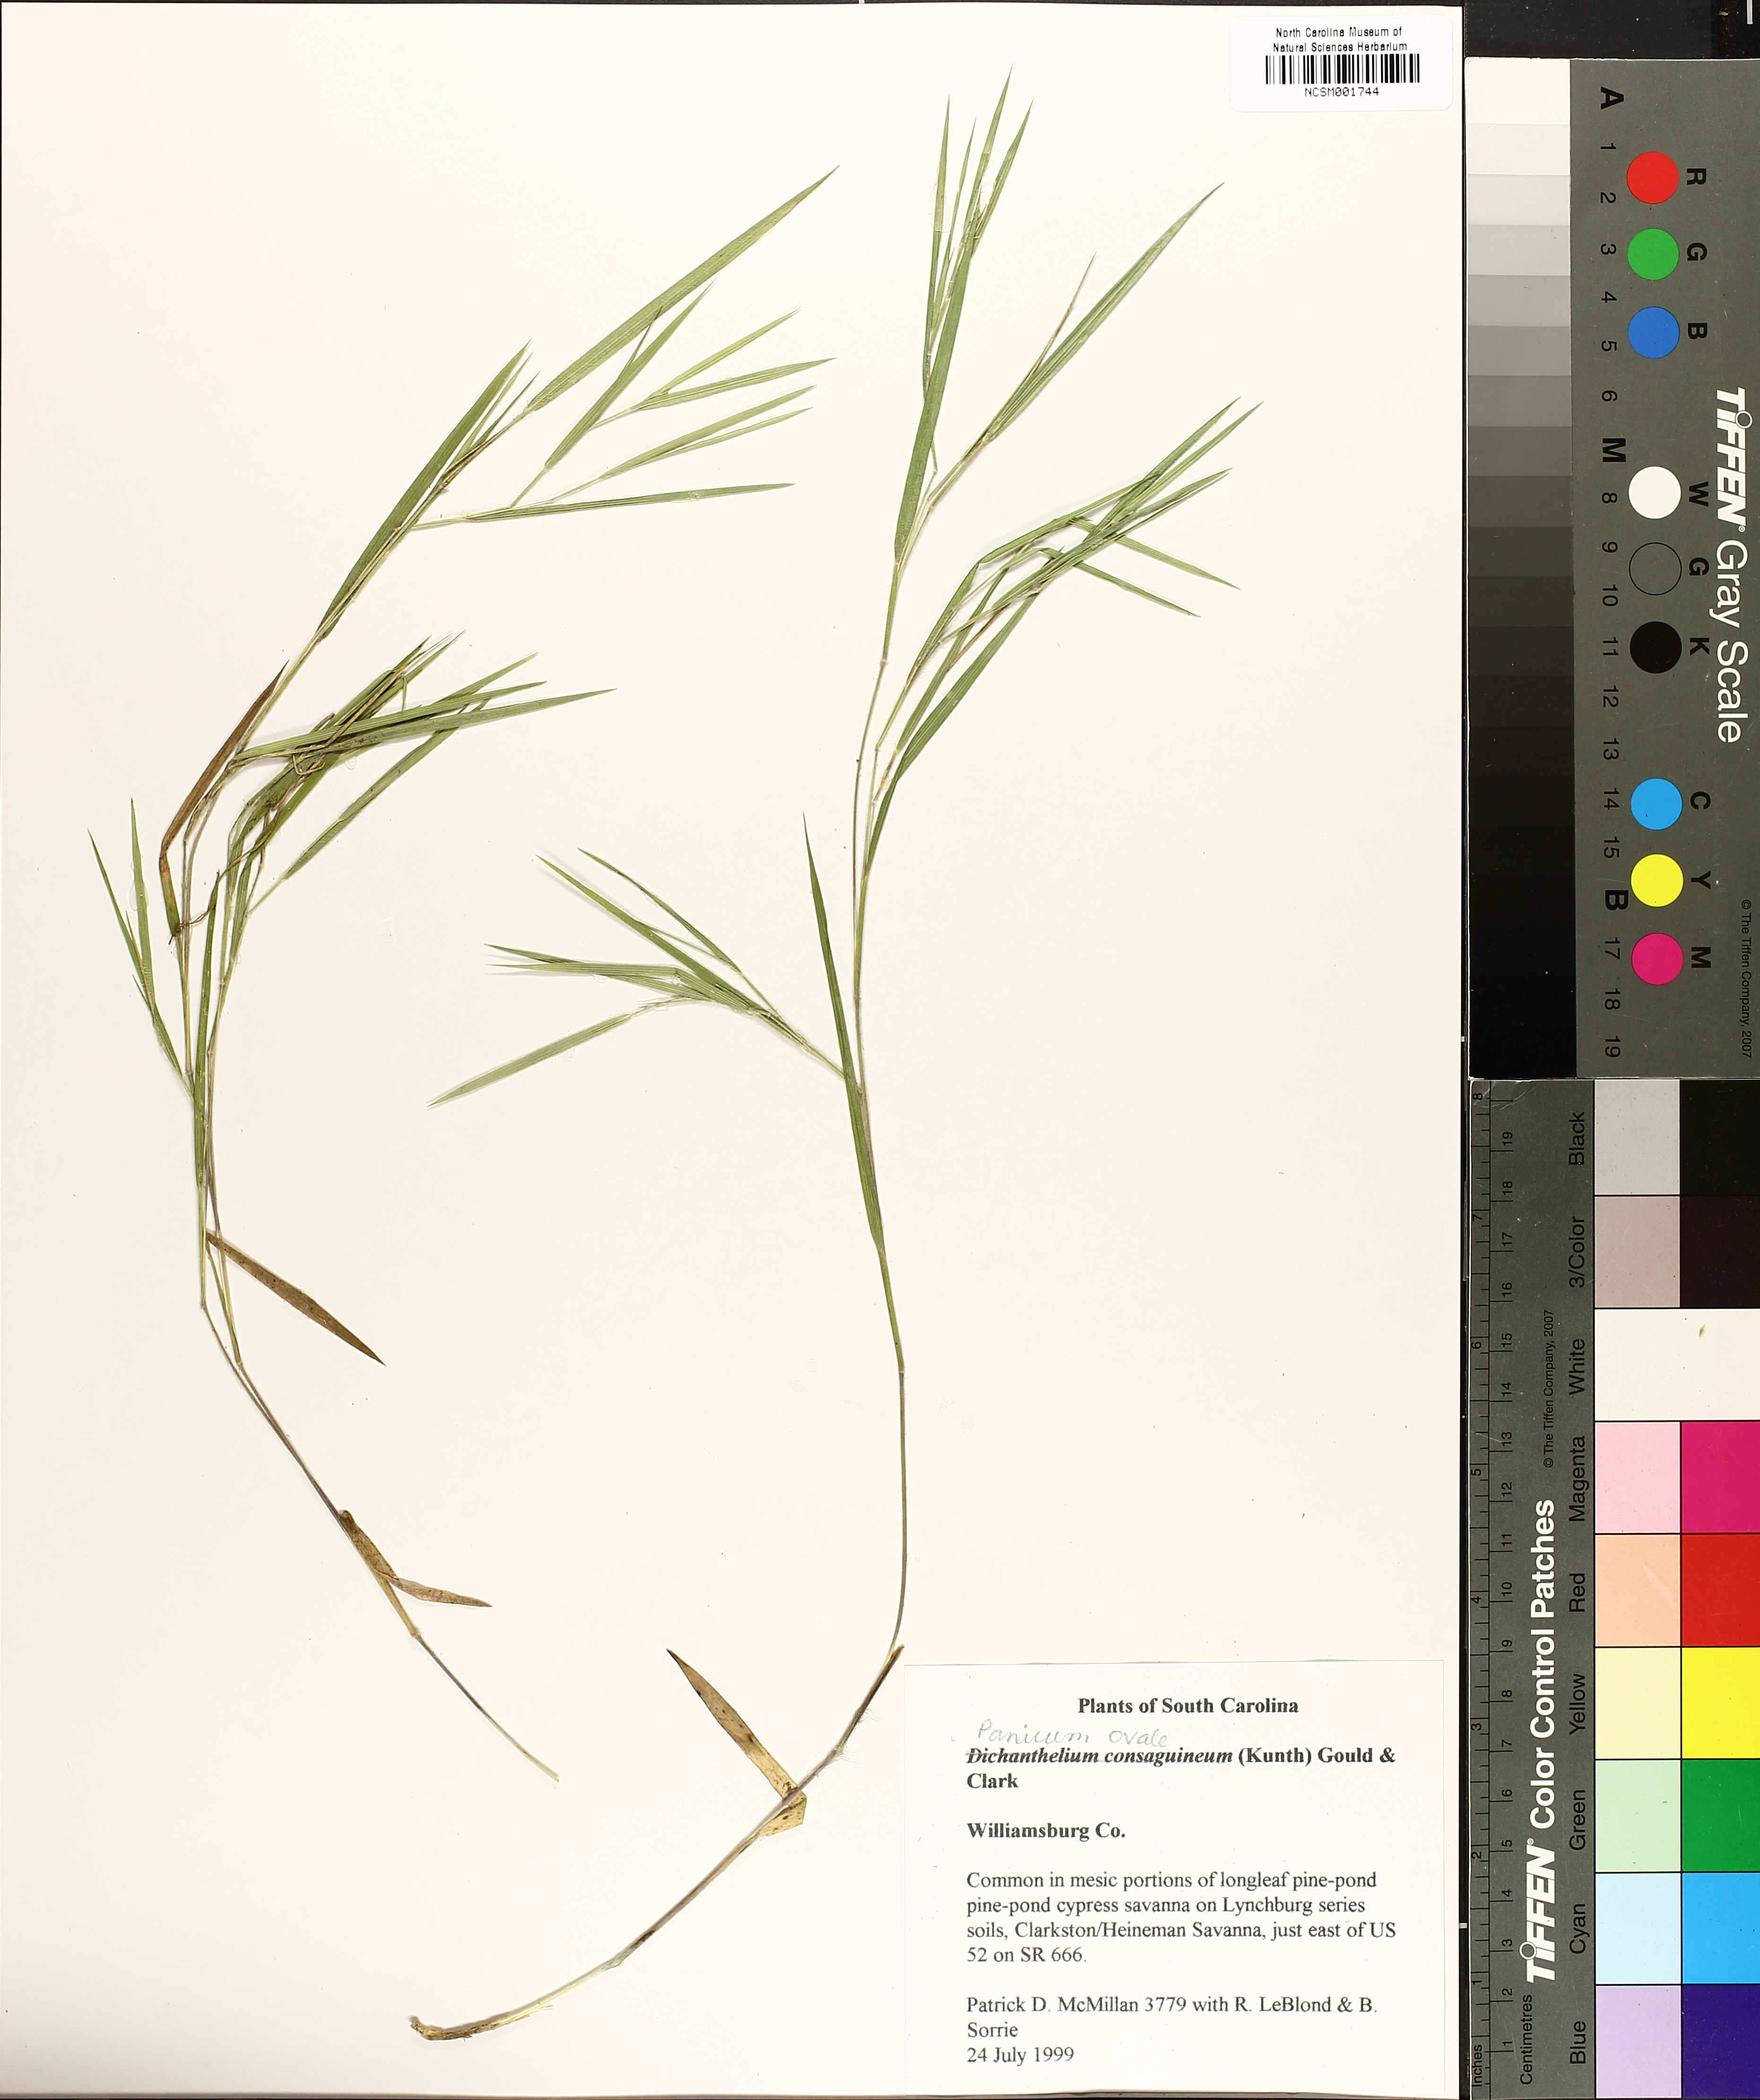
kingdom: Plantae
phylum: Tracheophyta
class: Liliopsida
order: Poales
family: Poaceae
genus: Dichanthelium
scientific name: Dichanthelium consanguineum
